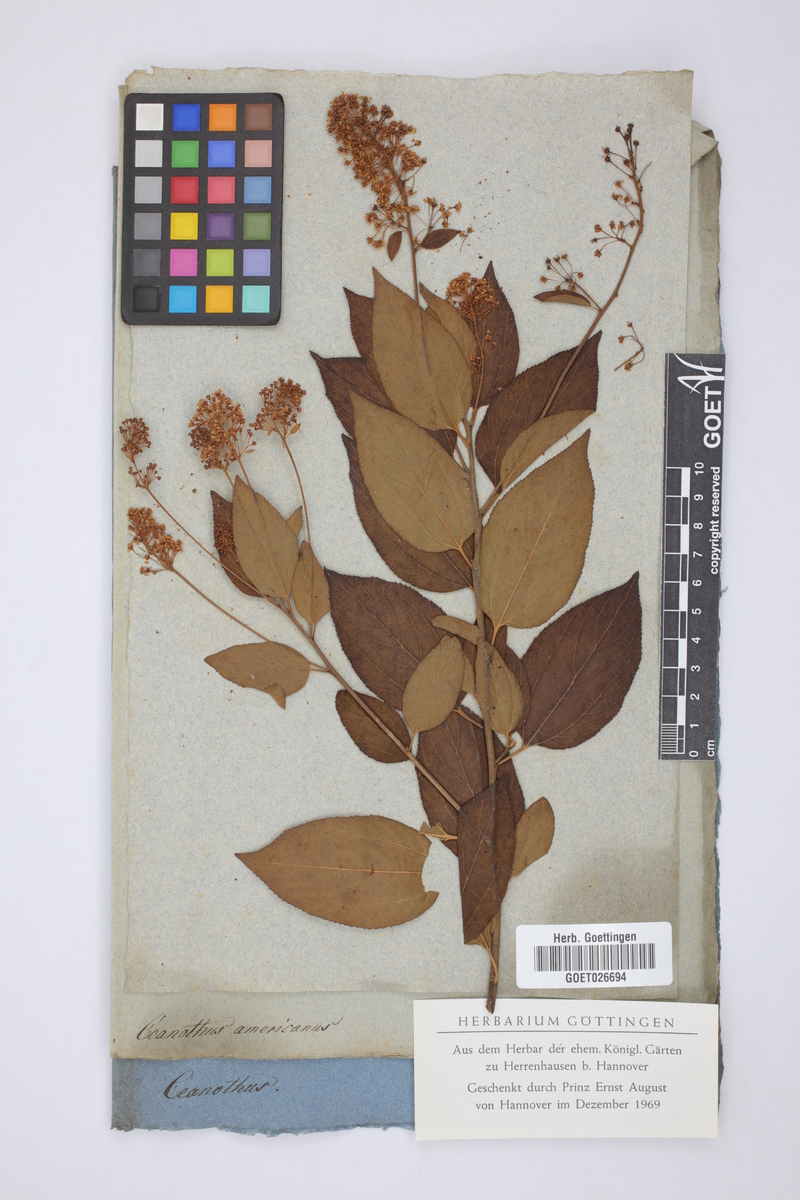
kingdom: Plantae
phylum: Tracheophyta
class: Magnoliopsida
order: Rosales
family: Rhamnaceae
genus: Ceanothus
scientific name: Ceanothus americanus
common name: Redroot
